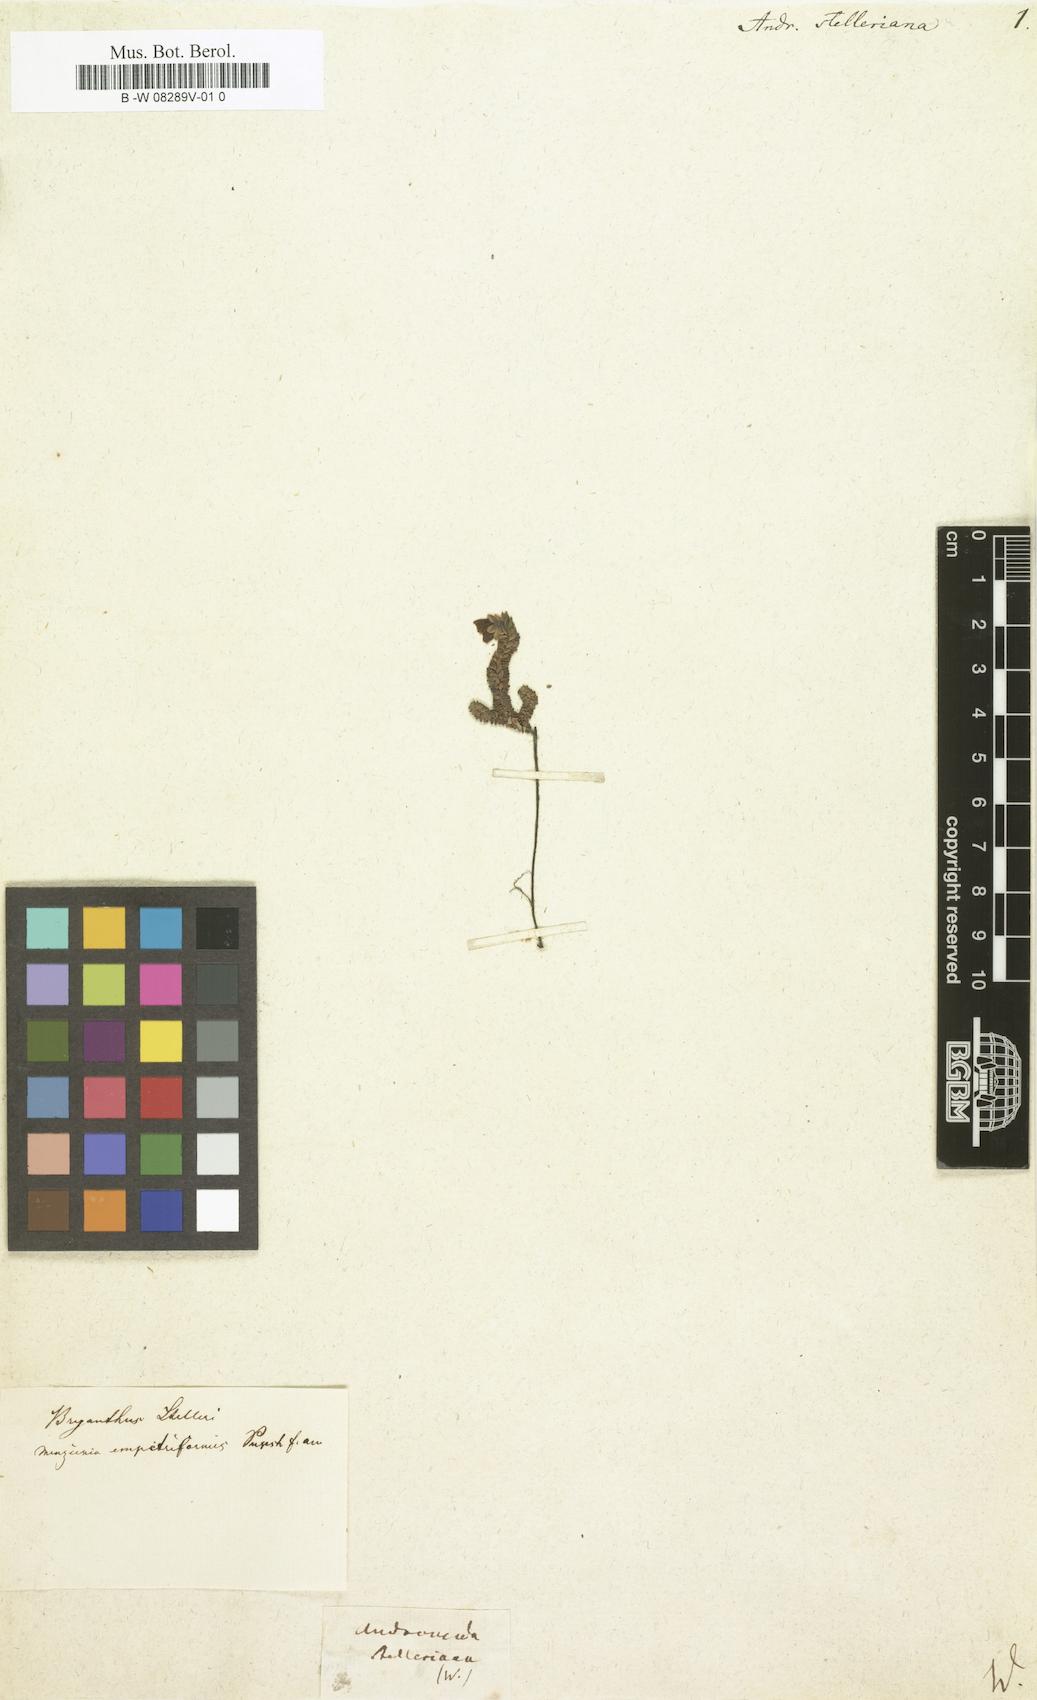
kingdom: Plantae
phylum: Tracheophyta
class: Magnoliopsida
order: Ericales
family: Ericaceae
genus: Harrimanella
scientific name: Harrimanella stelleriana
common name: Alaska bell heather
